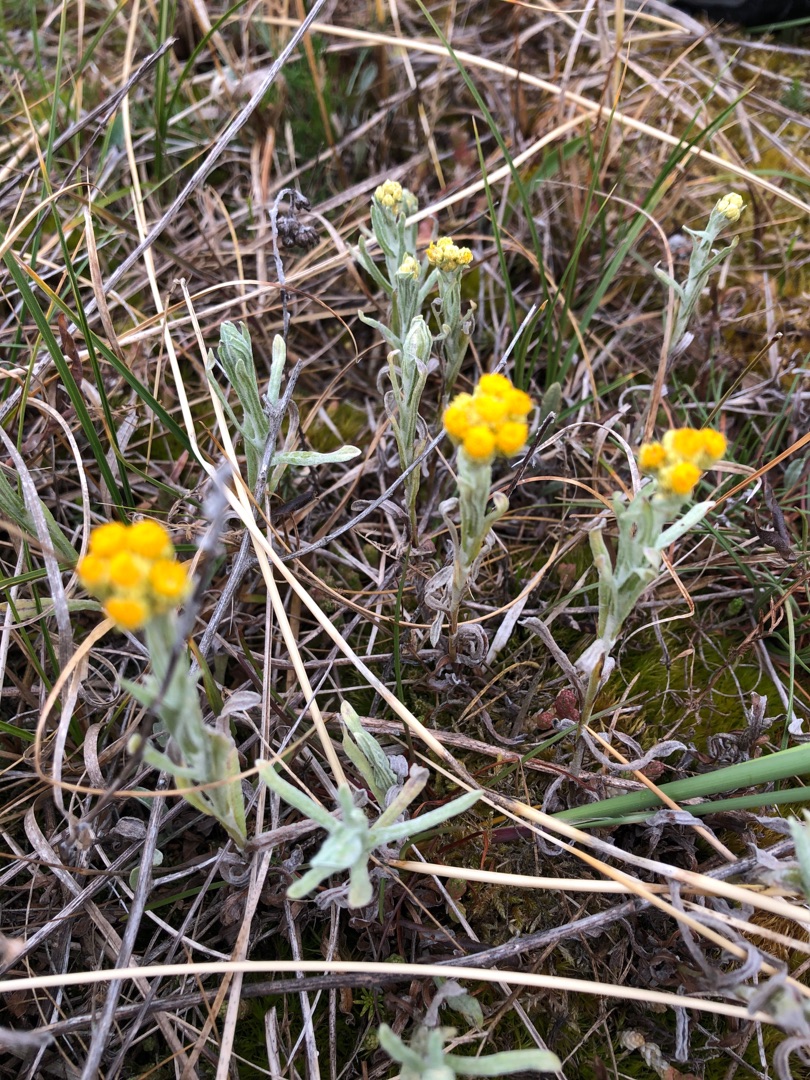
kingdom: Plantae
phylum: Tracheophyta
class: Magnoliopsida
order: Asterales
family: Asteraceae
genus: Helichrysum
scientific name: Helichrysum arenarium
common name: Gul evighedsblomst
